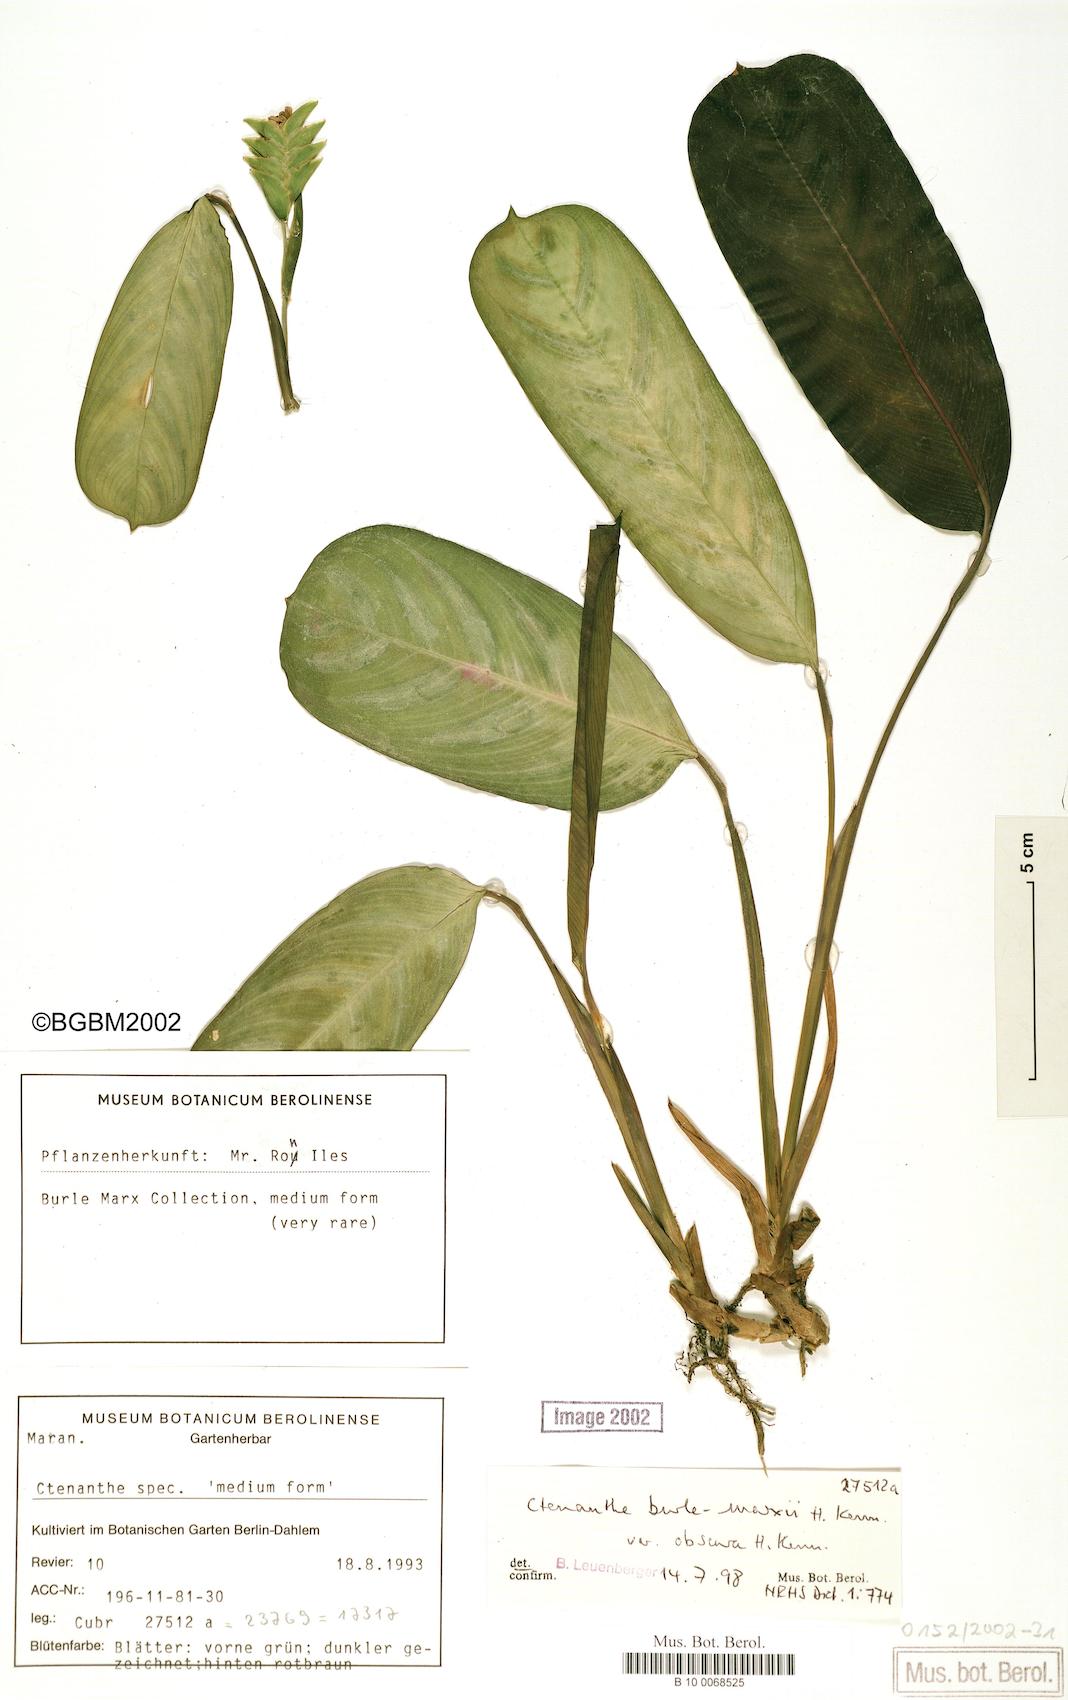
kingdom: Plantae
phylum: Tracheophyta
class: Liliopsida
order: Zingiberales
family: Marantaceae
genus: Ctenanthe
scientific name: Ctenanthe burle-marxii
